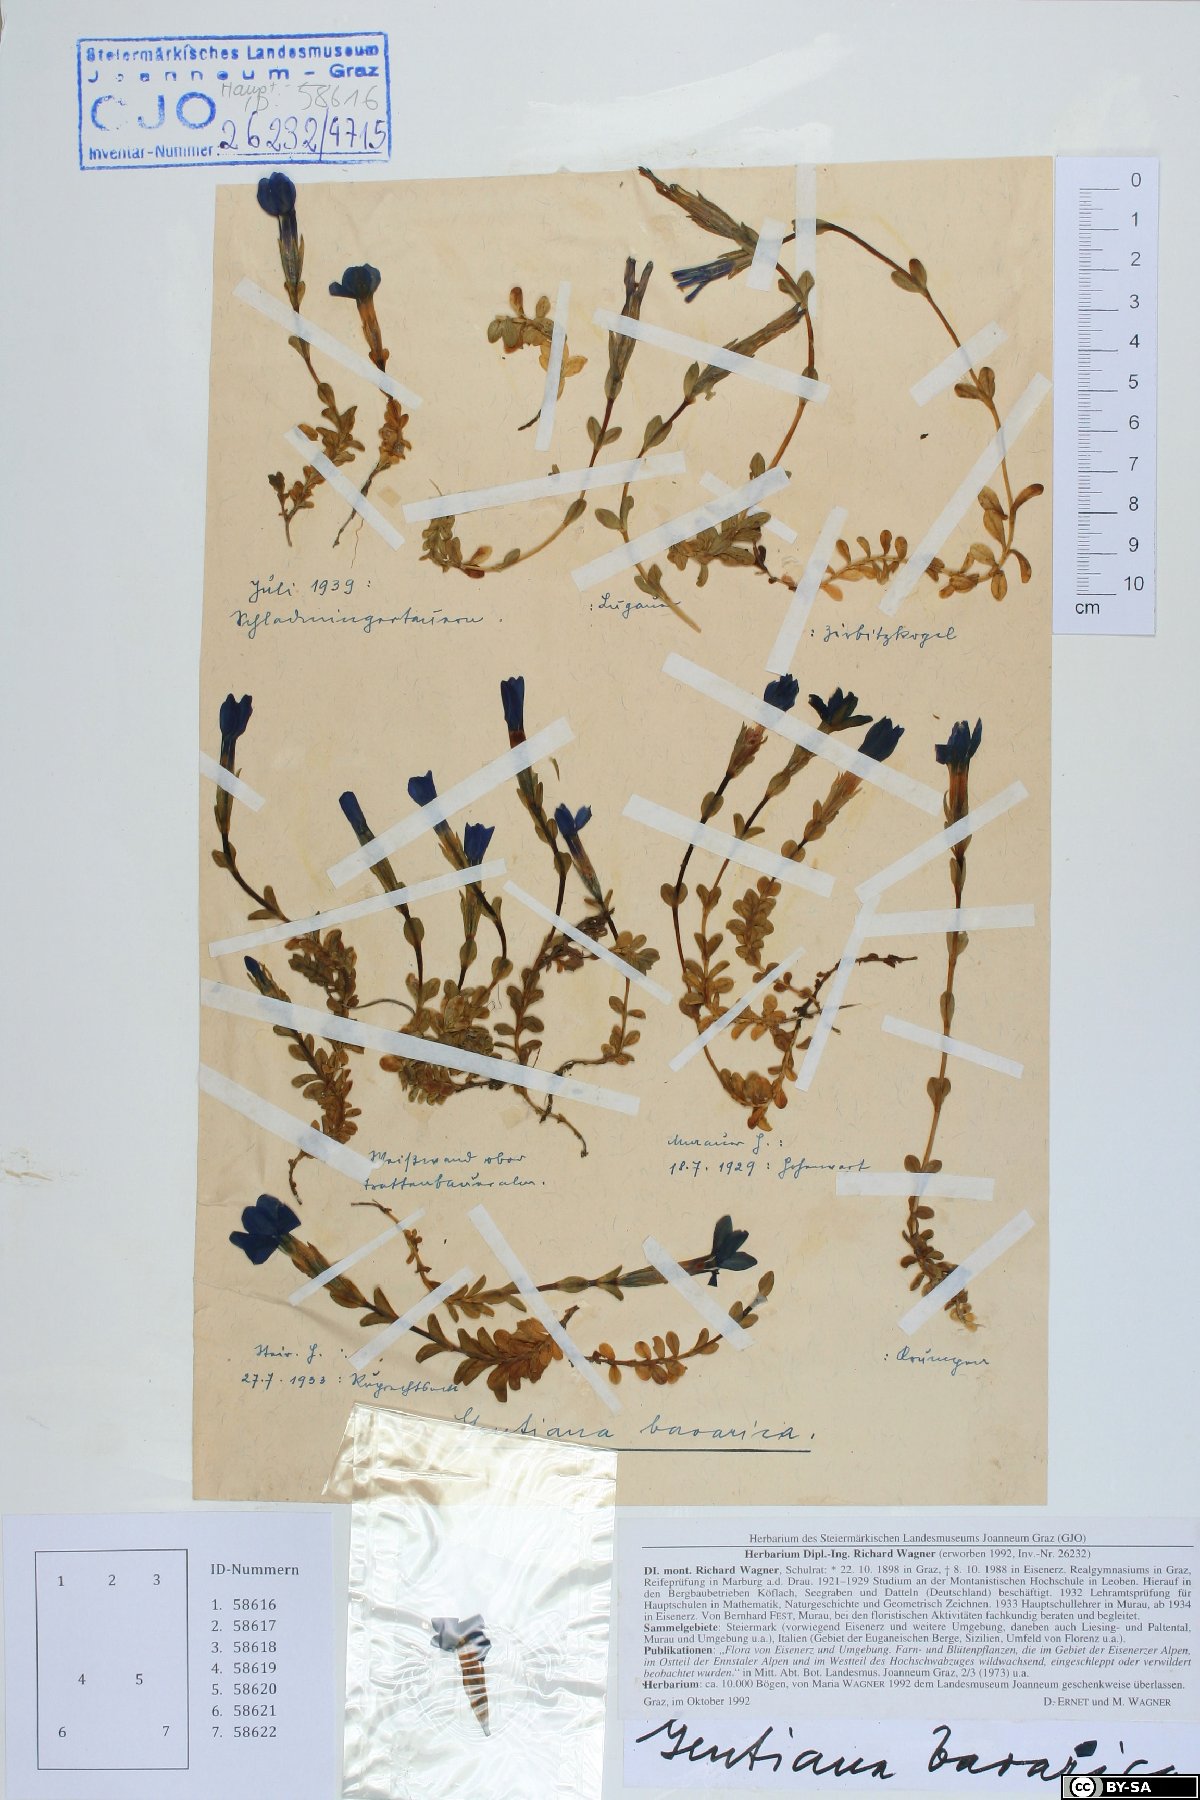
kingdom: Plantae
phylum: Tracheophyta
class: Magnoliopsida
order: Gentianales
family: Gentianaceae
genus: Gentiana
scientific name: Gentiana bavarica
